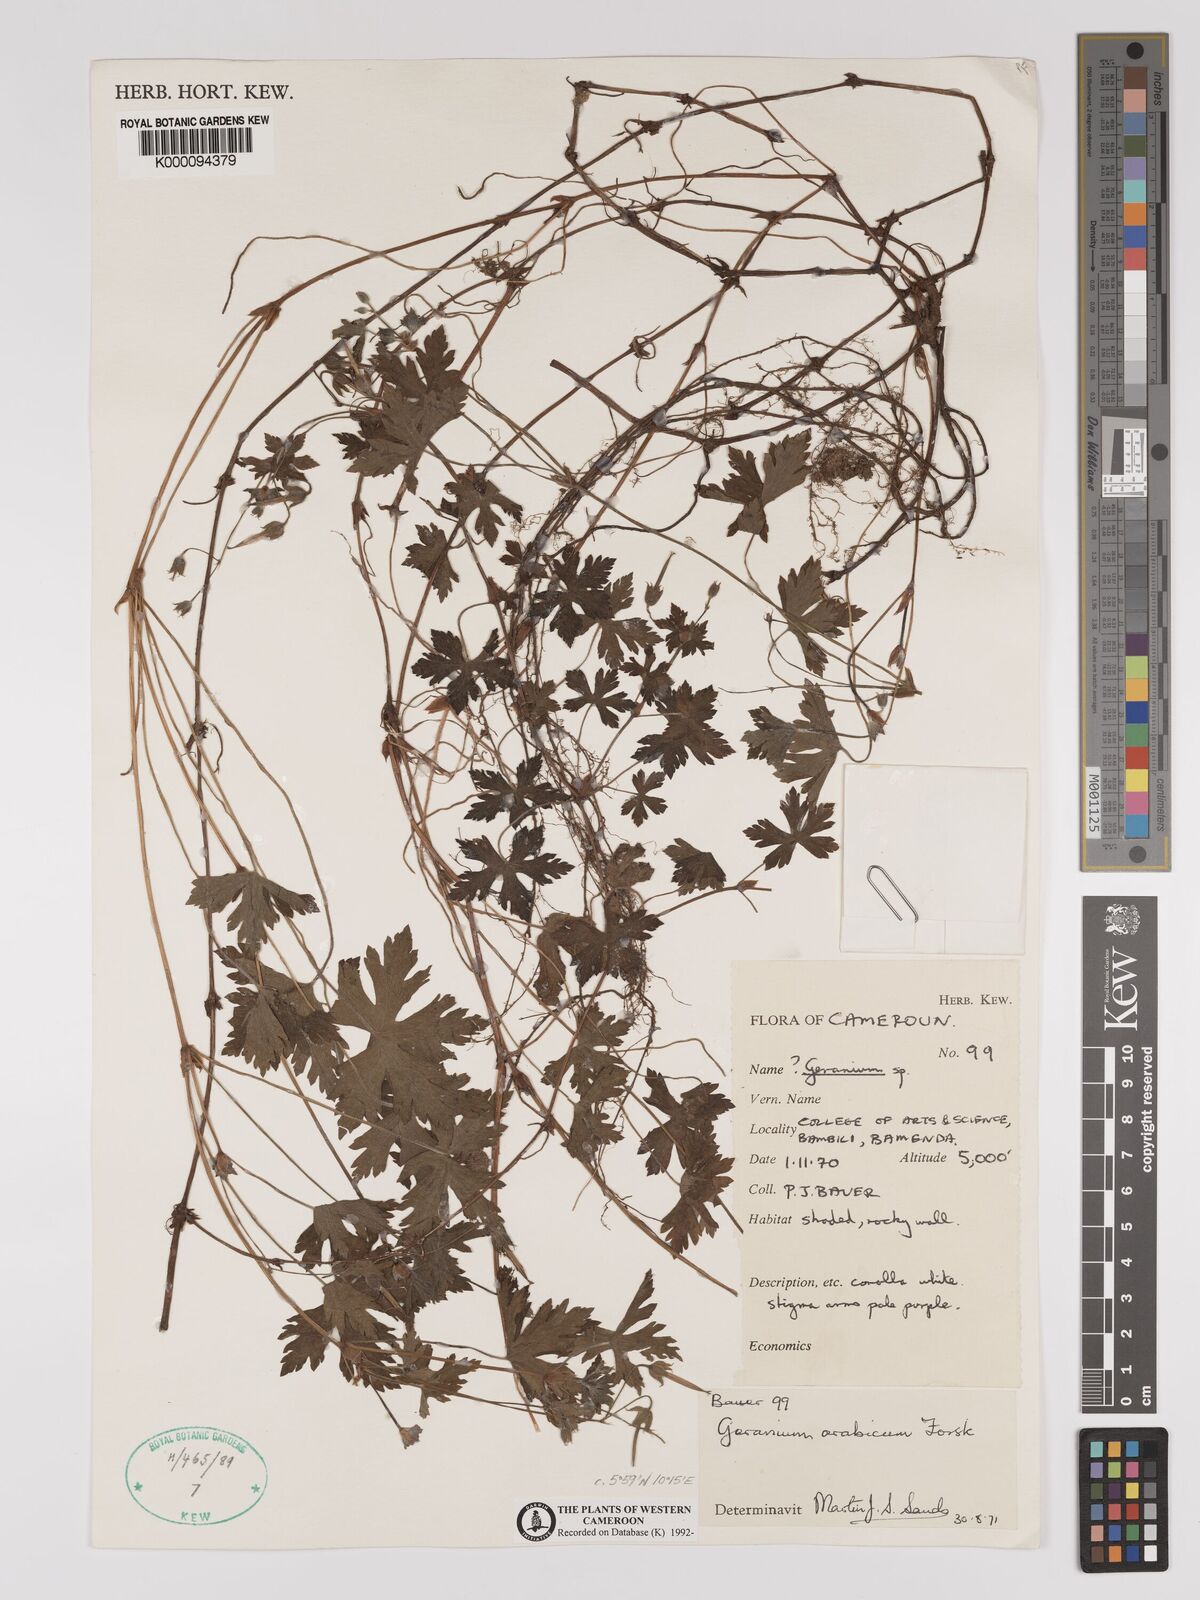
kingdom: Plantae
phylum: Tracheophyta
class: Magnoliopsida
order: Geraniales
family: Geraniaceae
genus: Geranium
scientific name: Geranium arabicum
